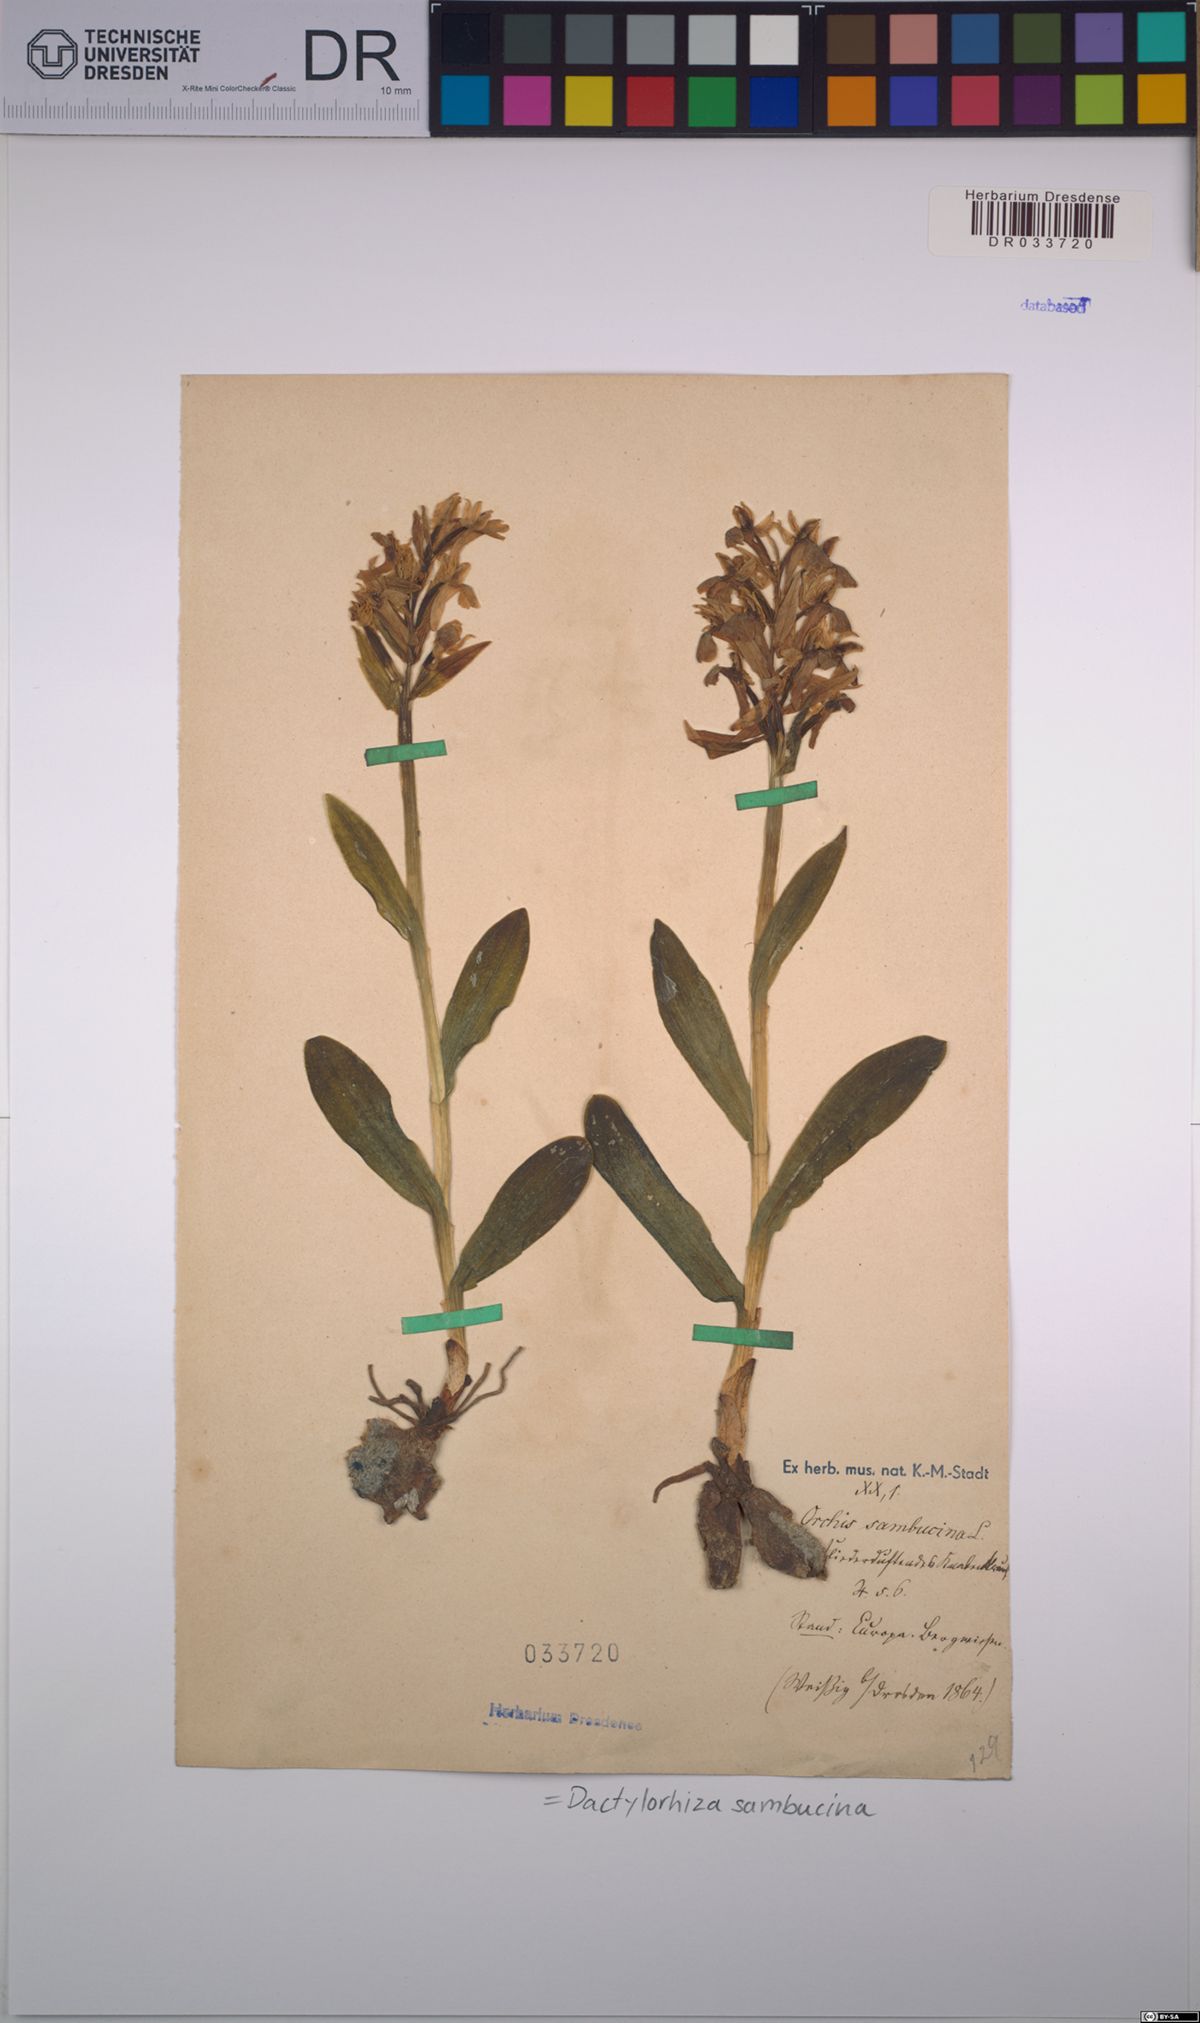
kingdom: Plantae
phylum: Tracheophyta
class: Liliopsida
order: Asparagales
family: Orchidaceae
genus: Dactylorhiza
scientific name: Dactylorhiza sambucina
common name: Elder-flowered orchid
